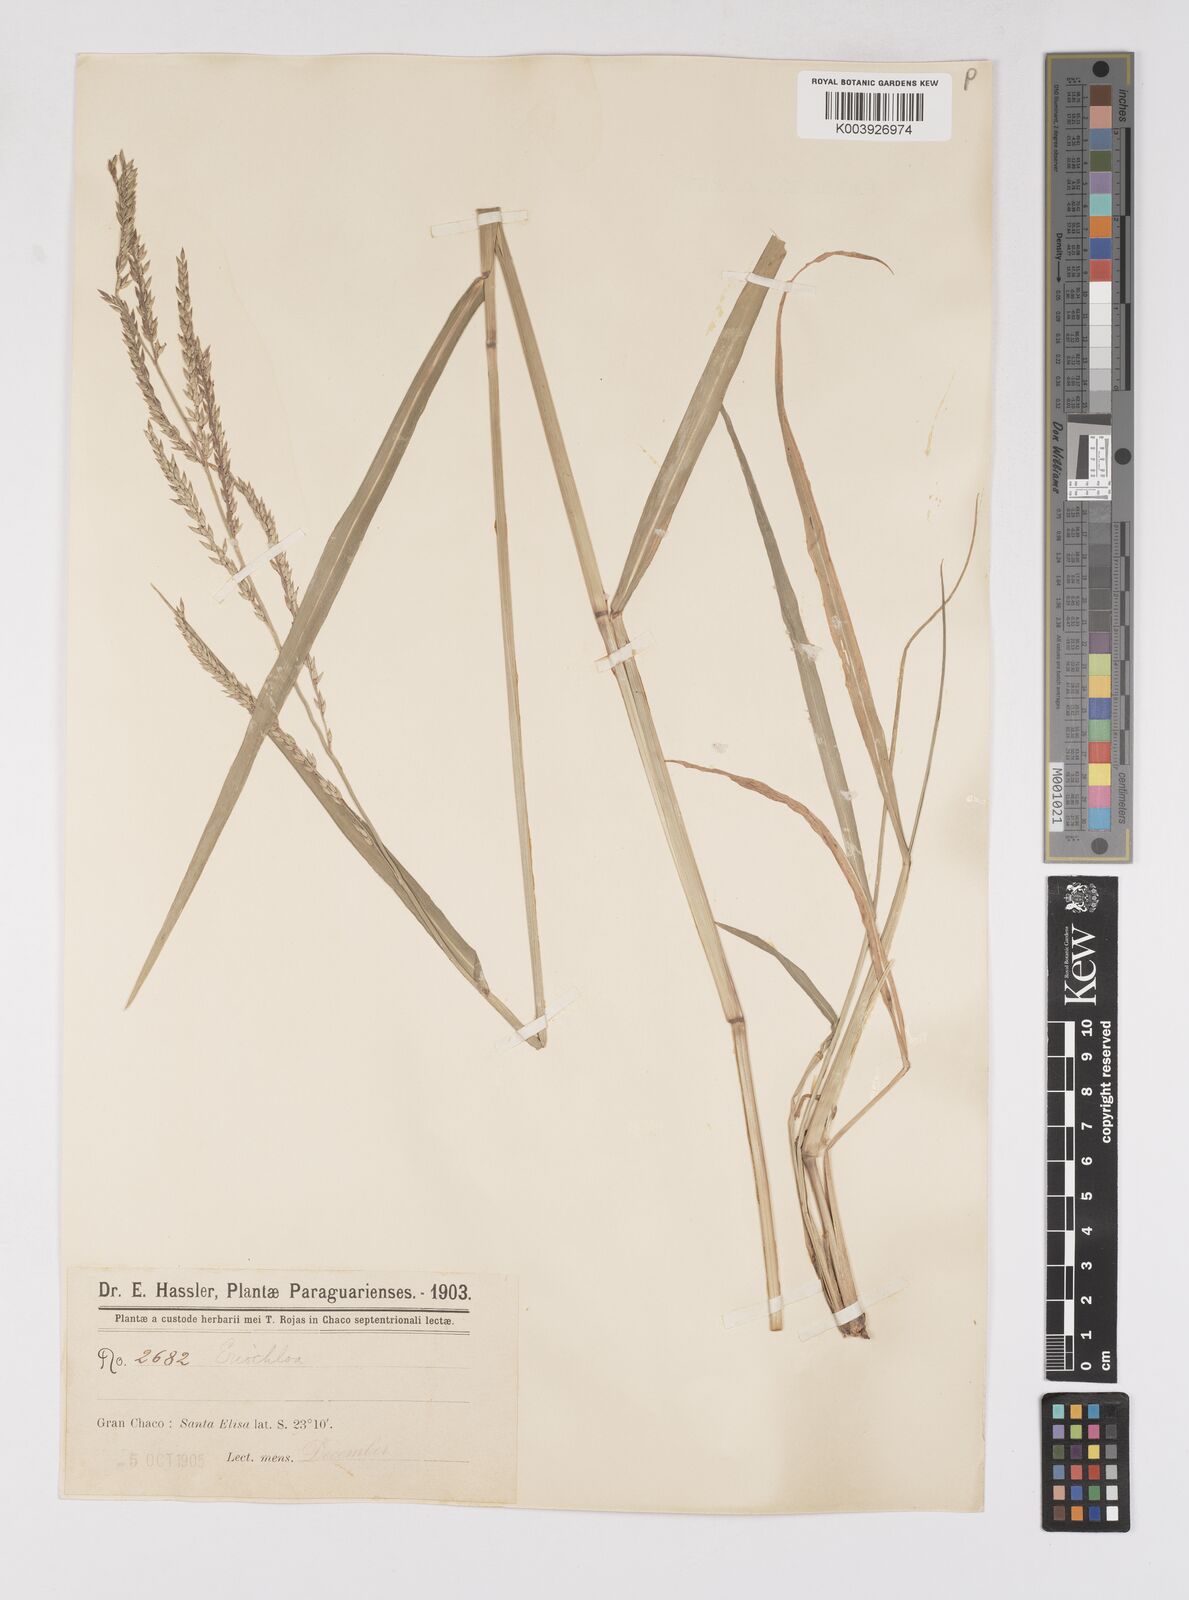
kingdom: Plantae
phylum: Tracheophyta
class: Liliopsida
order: Poales
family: Poaceae
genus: Eriochloa
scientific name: Eriochloa punctata
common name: Louisiana cupgrass
